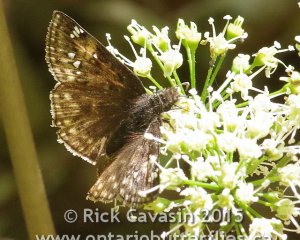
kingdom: Animalia
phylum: Arthropoda
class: Insecta
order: Lepidoptera
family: Hesperiidae
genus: Gesta
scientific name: Gesta
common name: Juvenal's Duskywing
